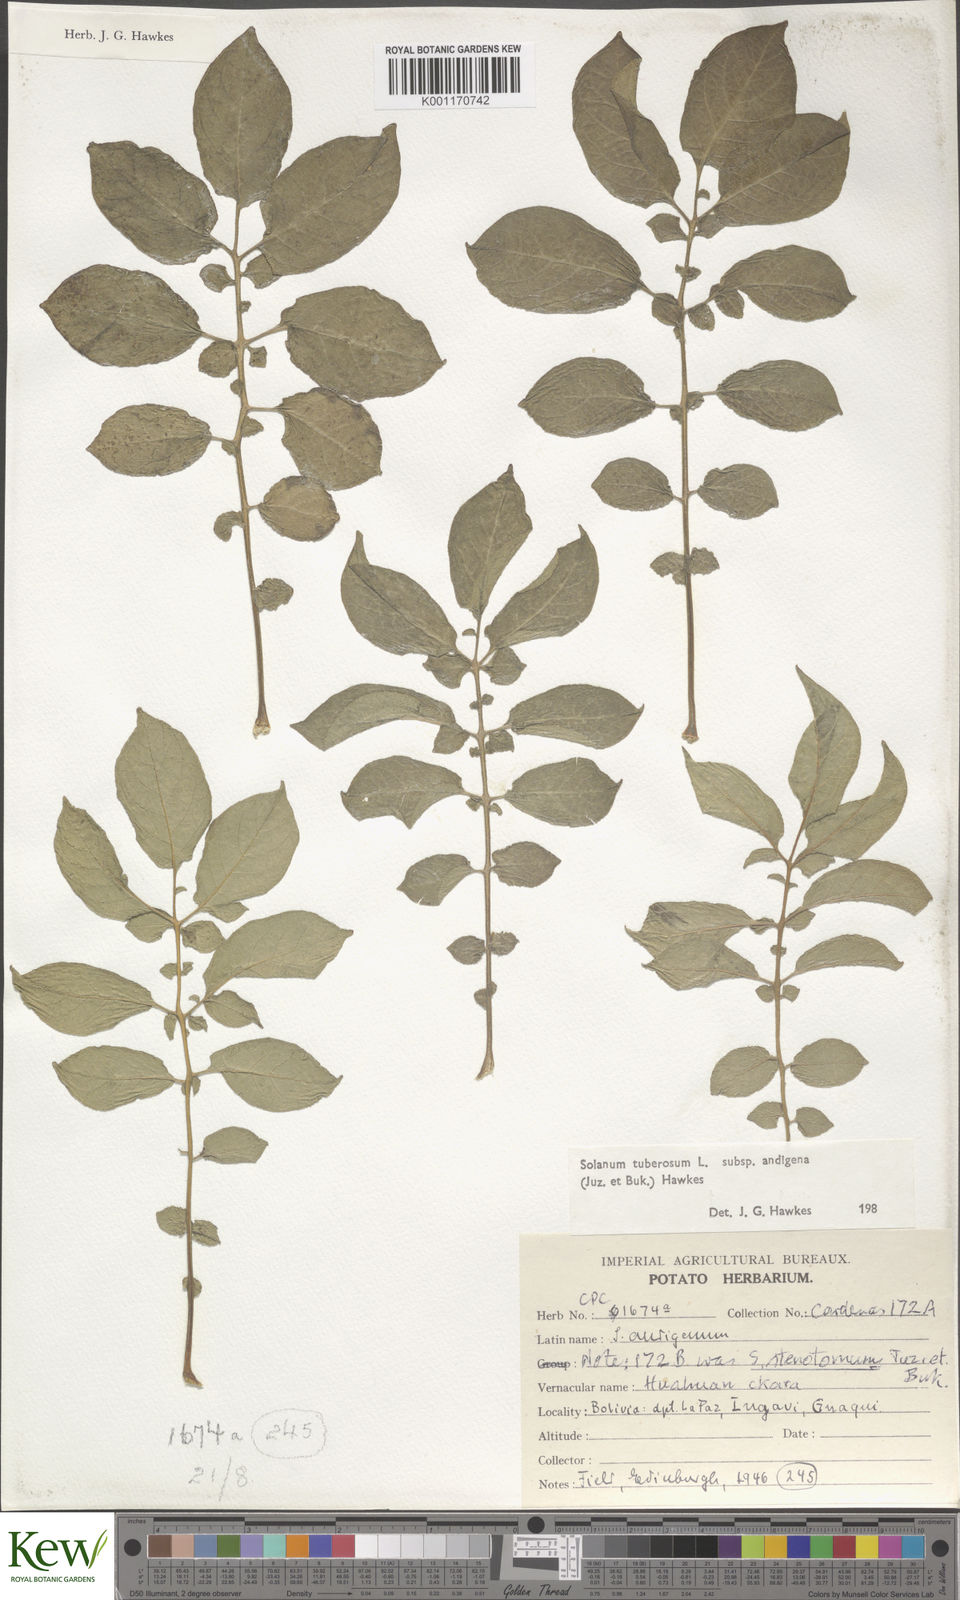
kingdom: Plantae
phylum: Tracheophyta
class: Magnoliopsida
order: Solanales
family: Solanaceae
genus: Solanum
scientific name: Solanum tuberosum
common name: Potato
